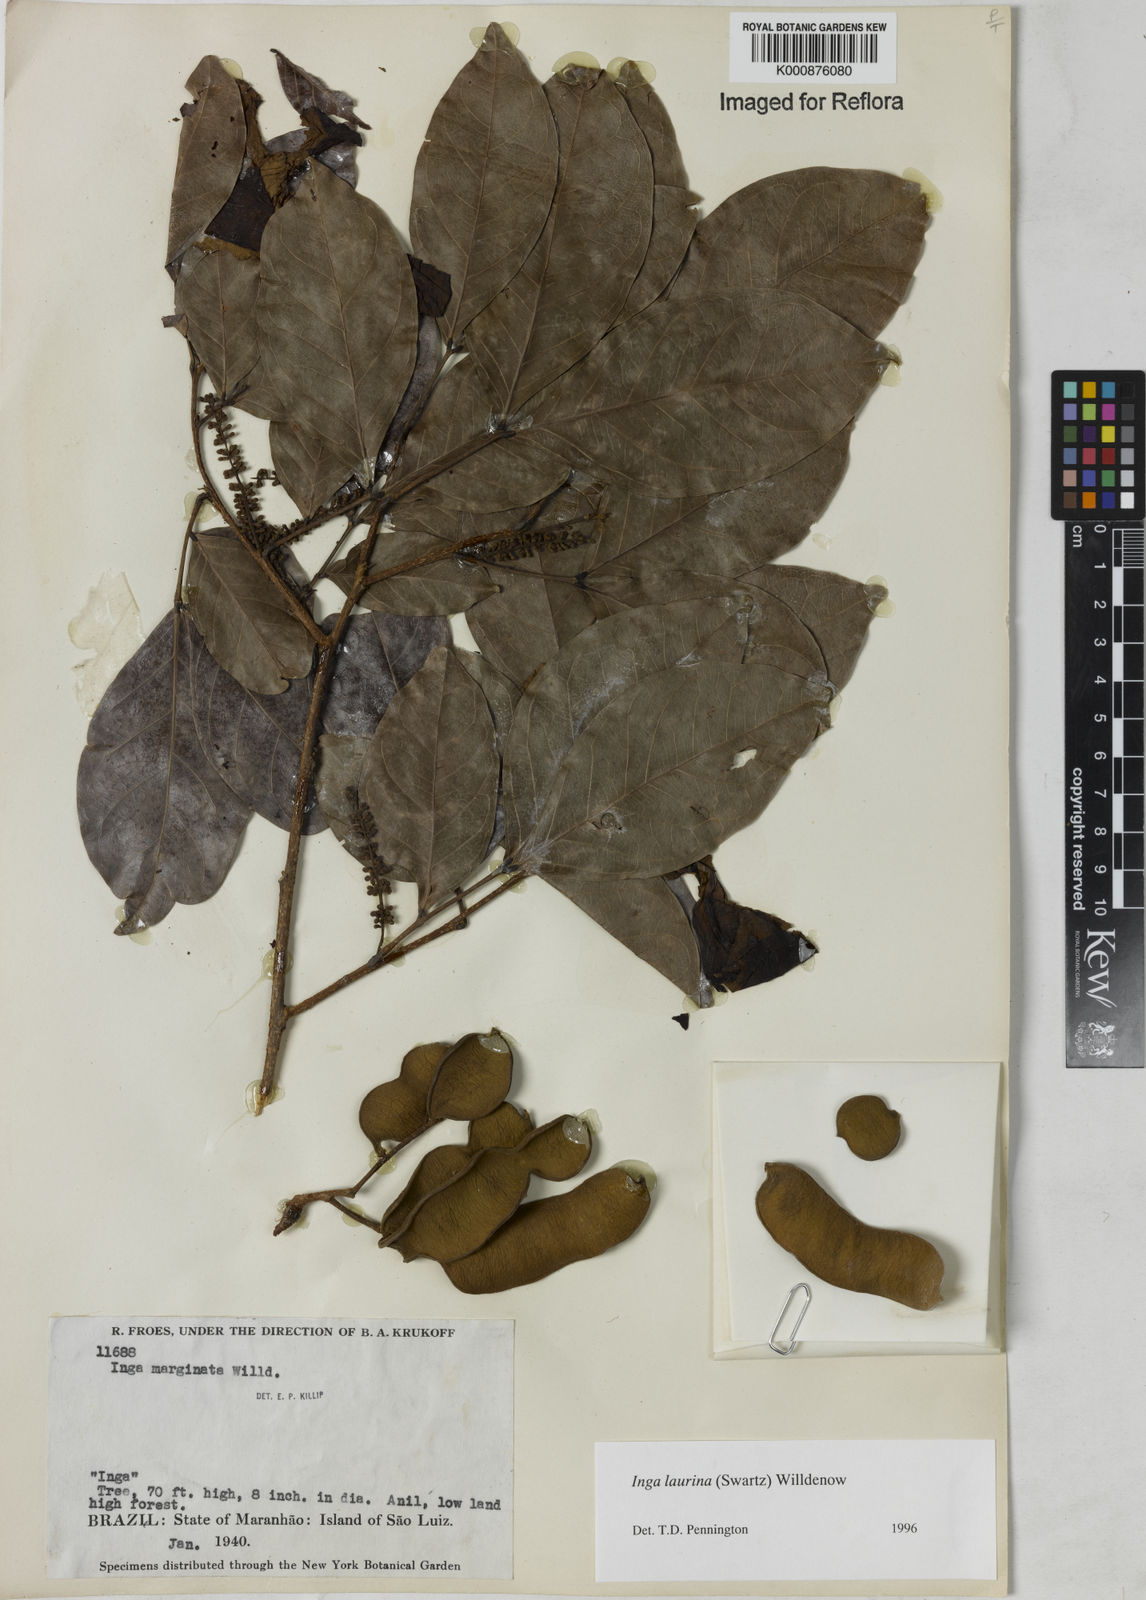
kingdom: Plantae
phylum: Tracheophyta
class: Magnoliopsida
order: Fabales
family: Fabaceae
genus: Inga
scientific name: Inga laurina
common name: Red wood
